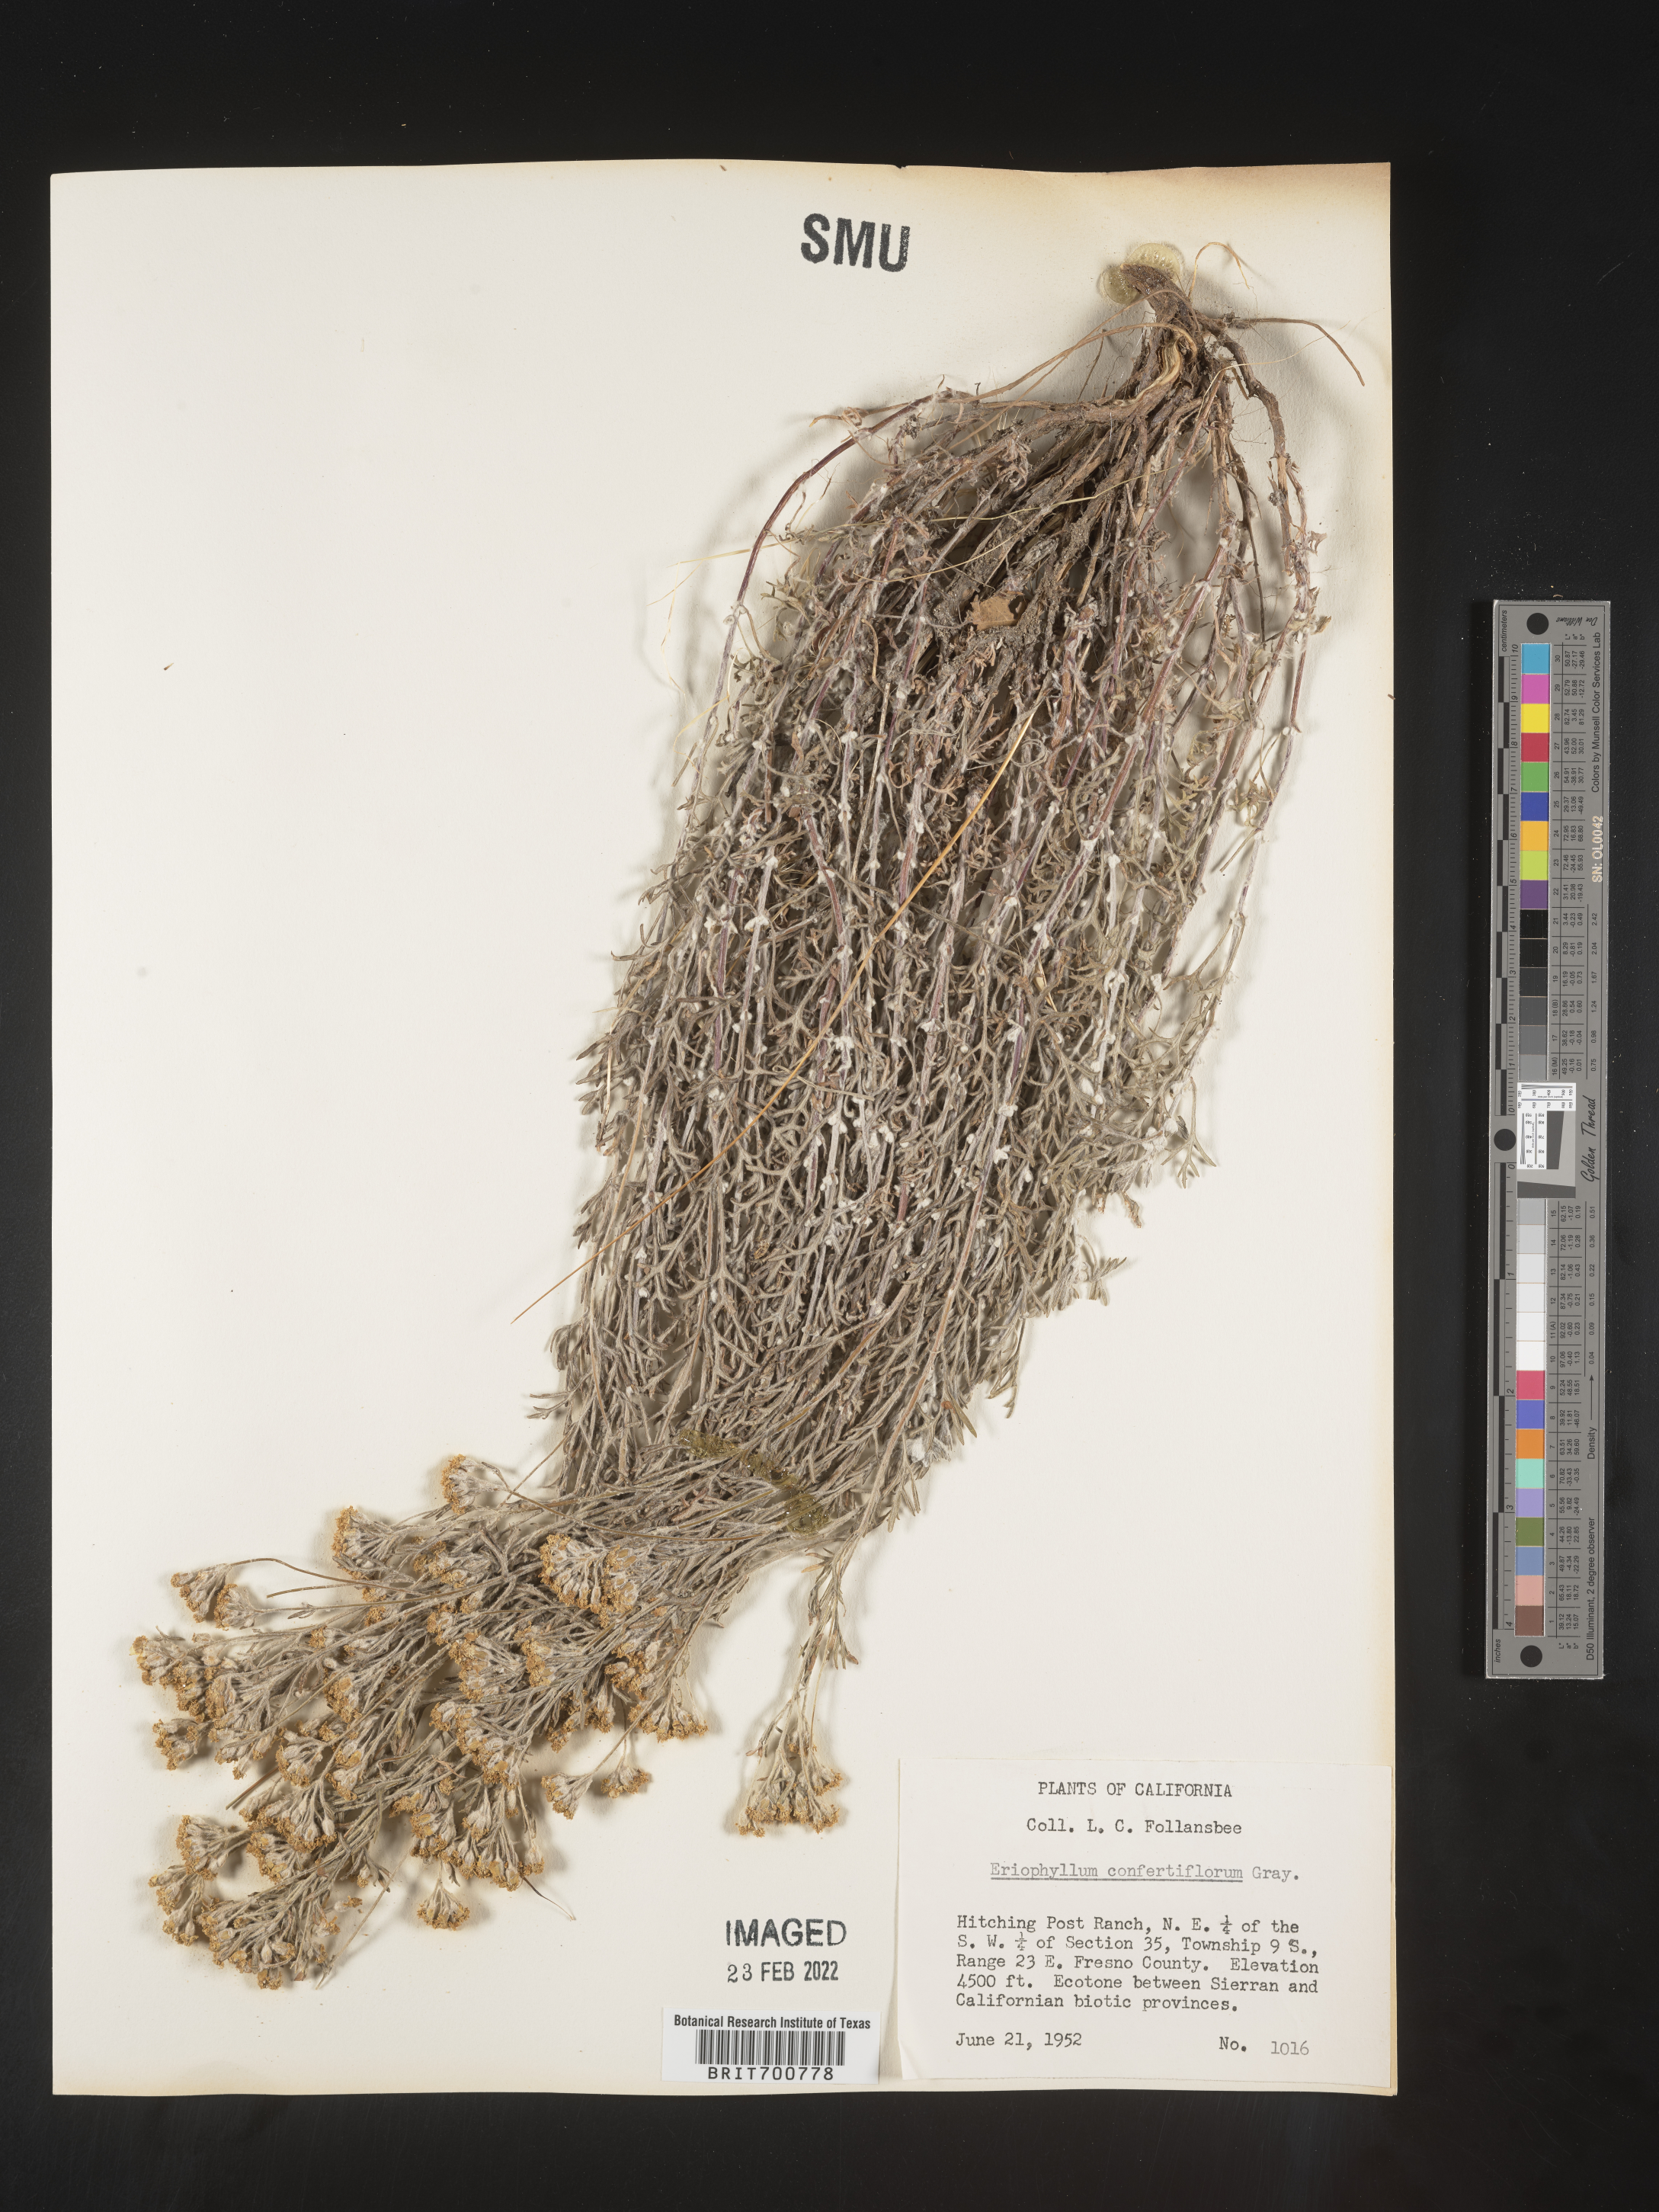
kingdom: Plantae
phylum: Tracheophyta
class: Magnoliopsida
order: Asterales
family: Asteraceae
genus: Eriophyllum
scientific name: Eriophyllum confertiflorum
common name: Golden-yarrow
